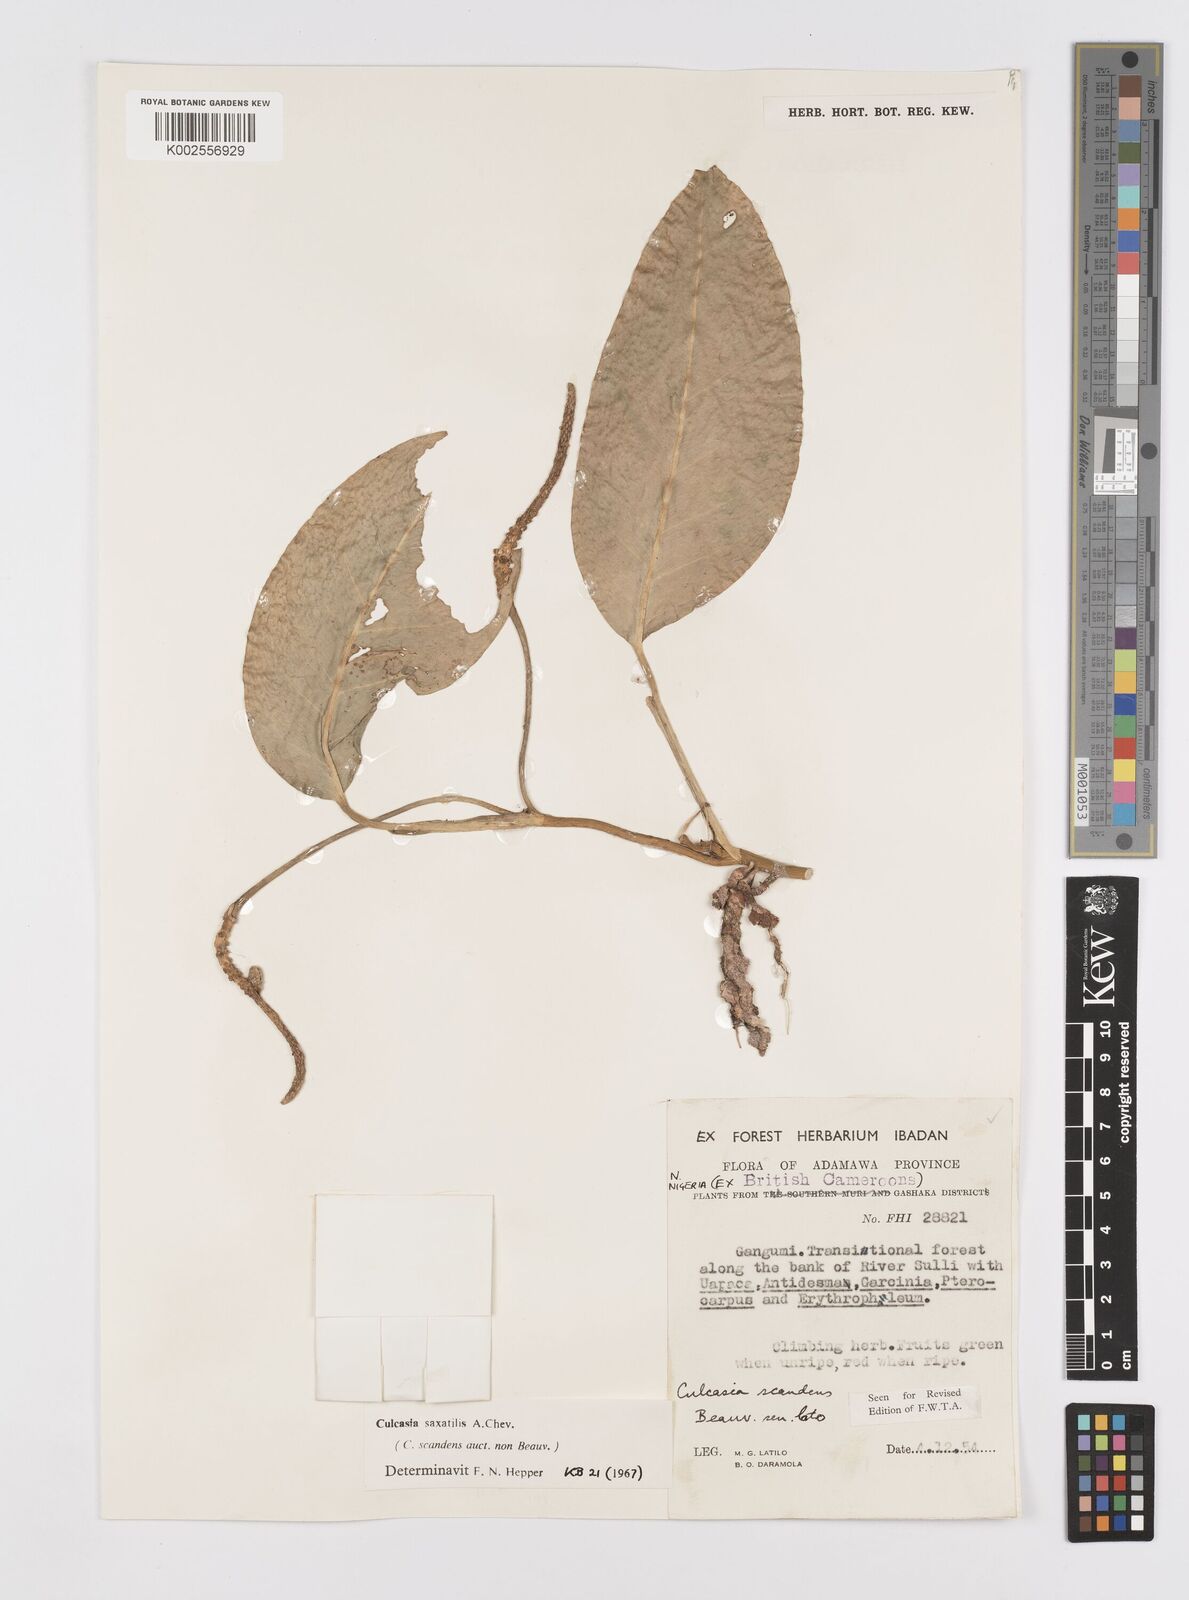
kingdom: Plantae
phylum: Tracheophyta
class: Liliopsida
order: Alismatales
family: Araceae
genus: Culcasia
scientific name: Culcasia scandens
